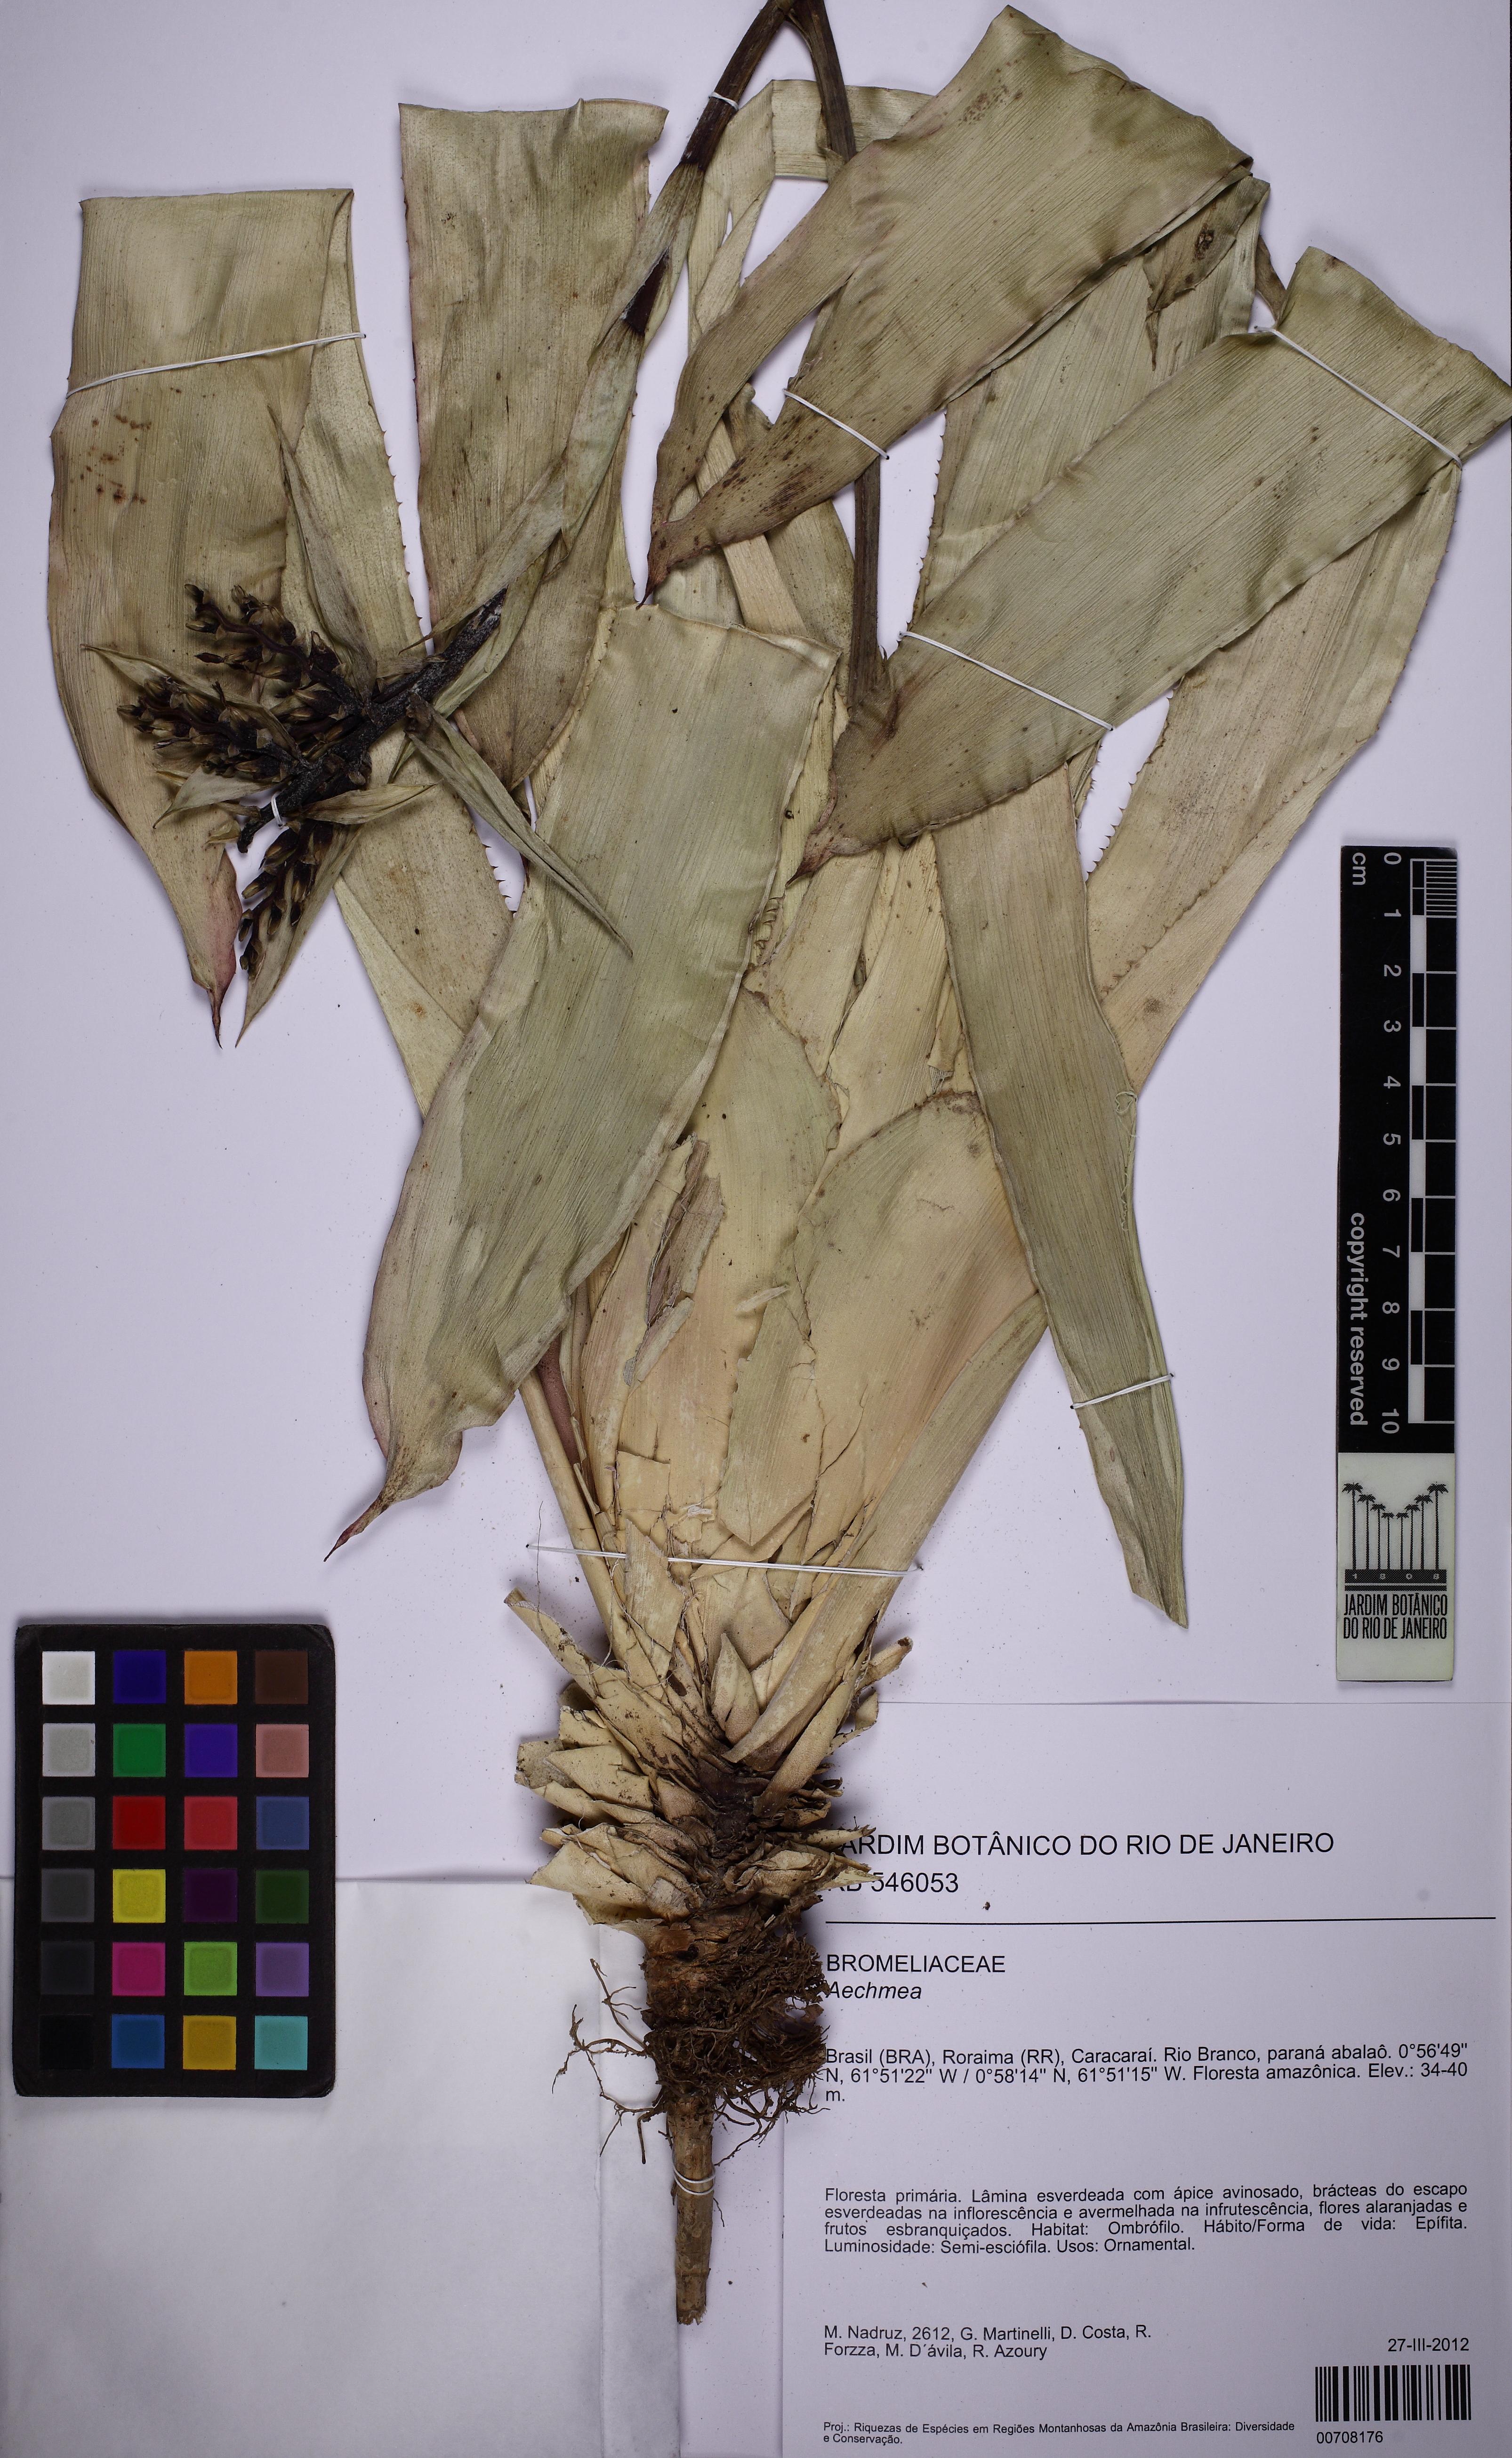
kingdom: Plantae
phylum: Tracheophyta
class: Liliopsida
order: Poales
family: Bromeliaceae
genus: Aechmea
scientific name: Aechmea
